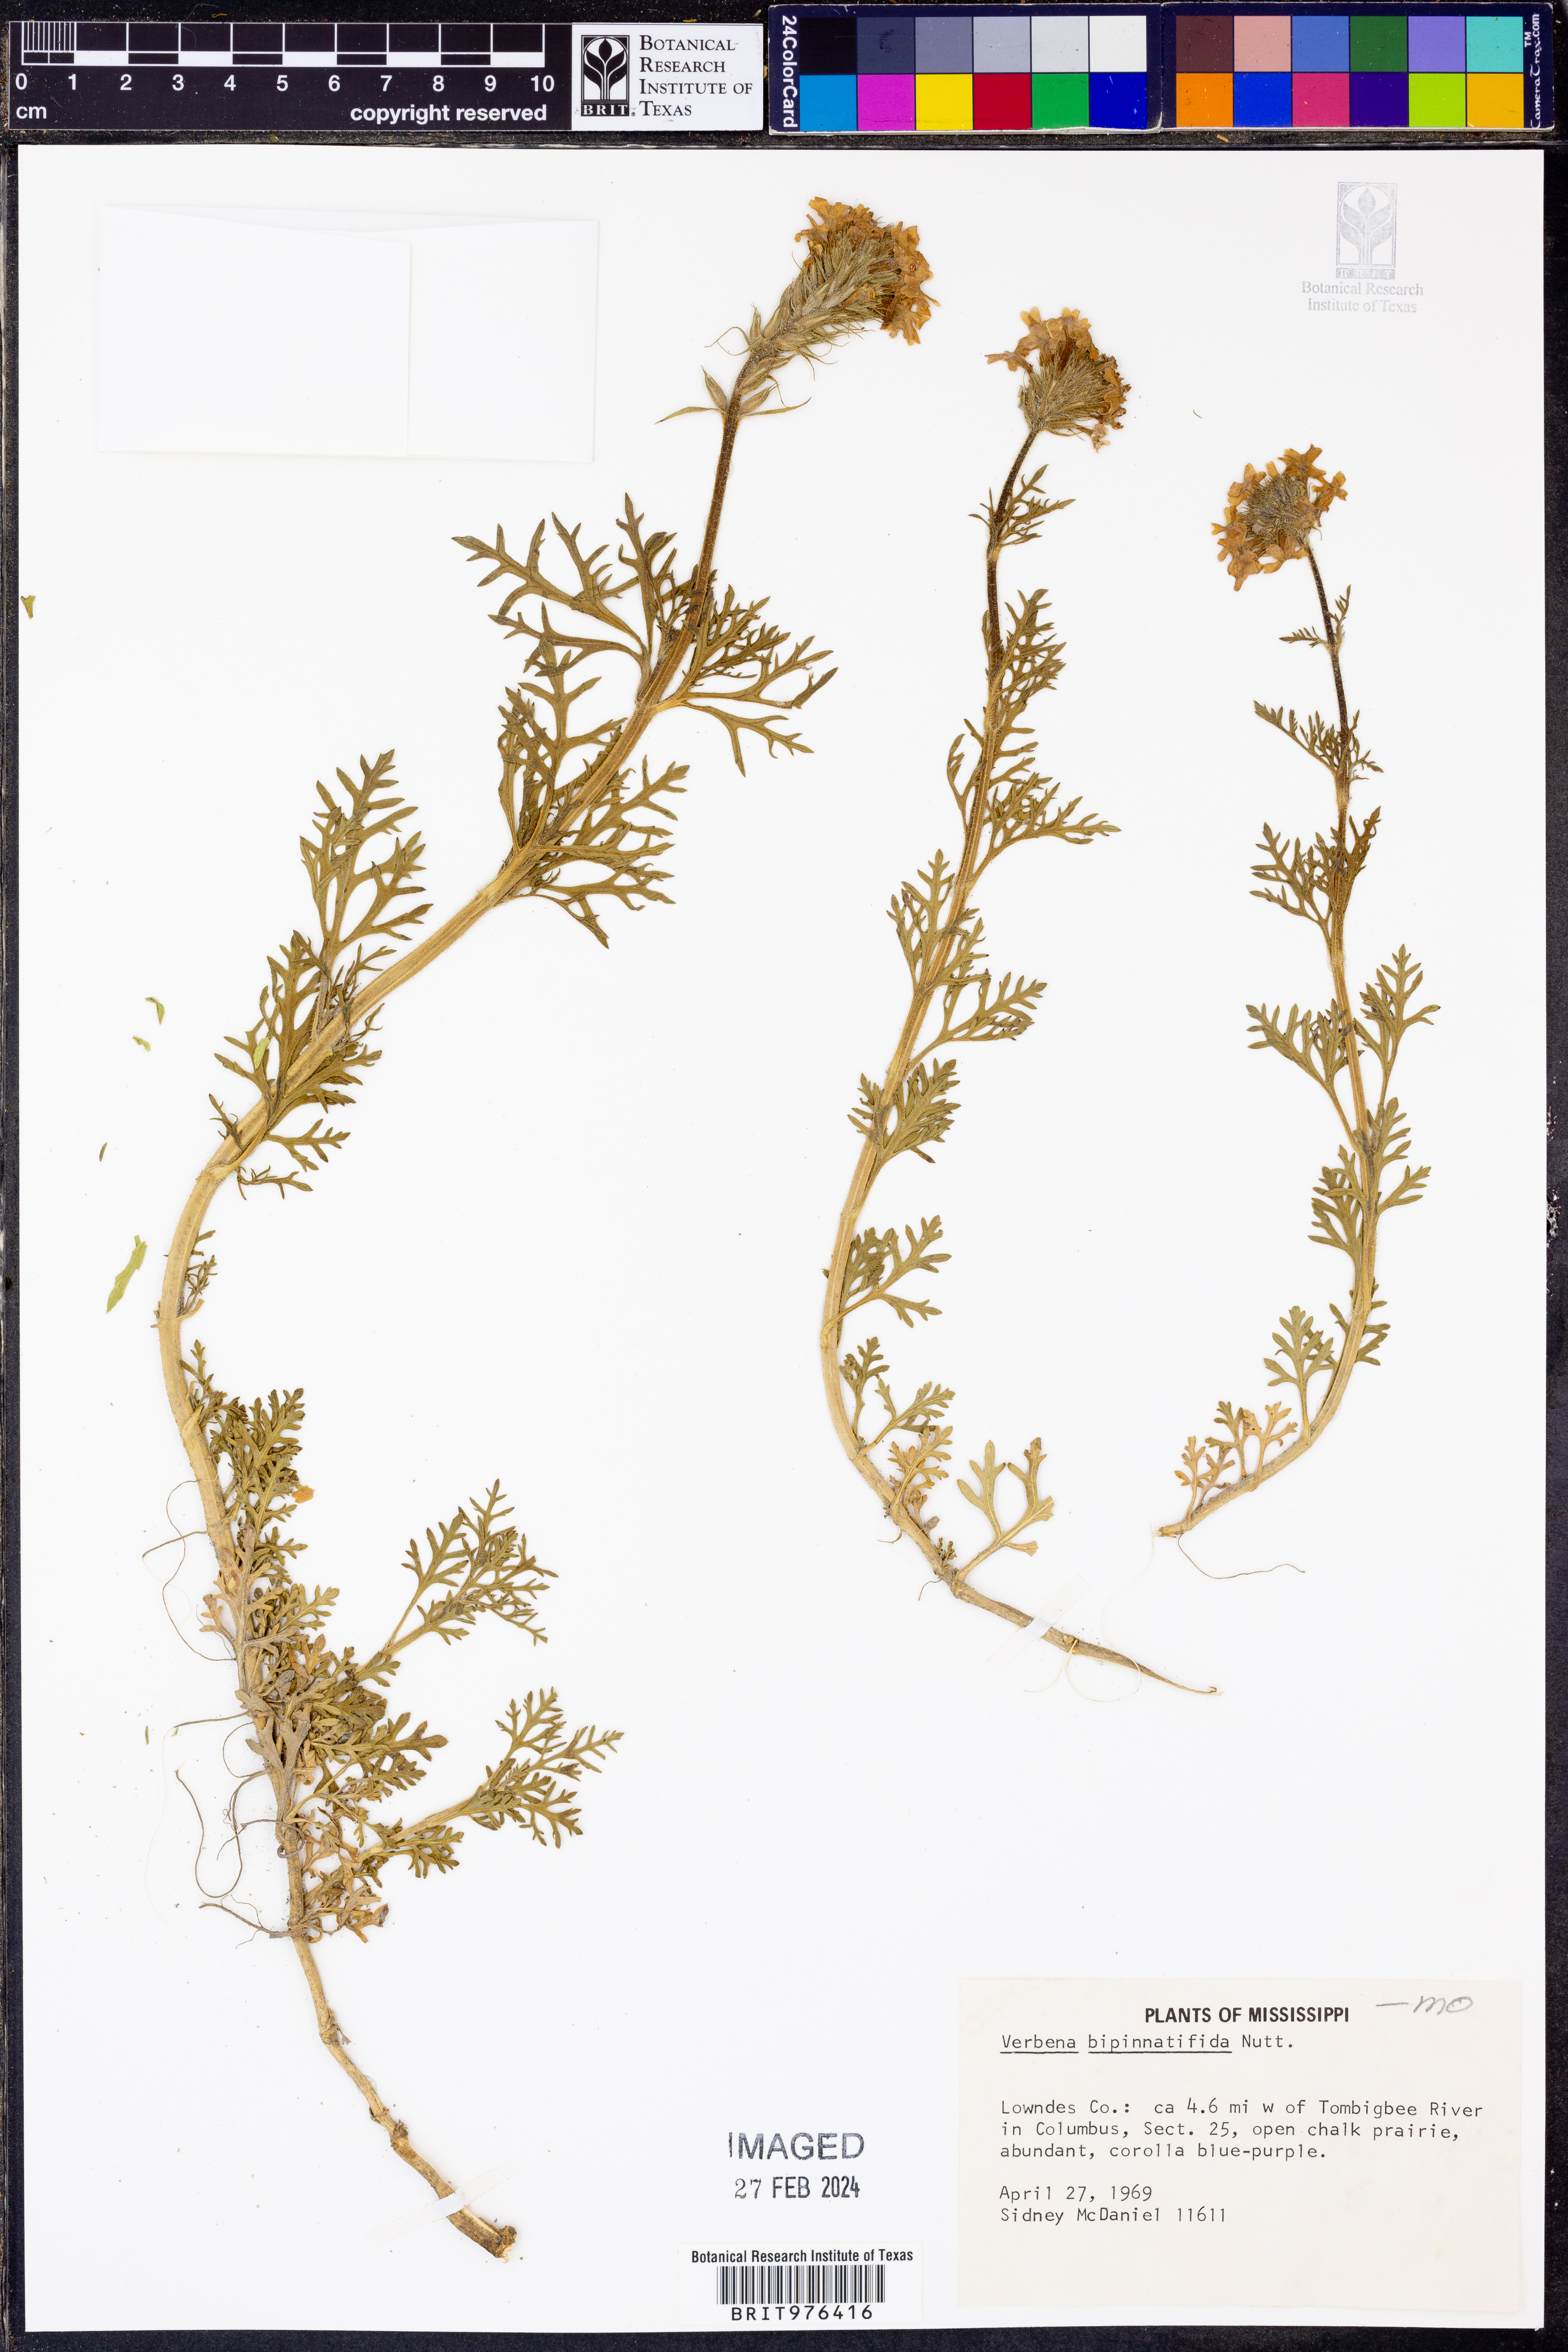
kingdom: Plantae
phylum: Tracheophyta
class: Magnoliopsida
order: Lamiales
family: Verbenaceae
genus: Verbena
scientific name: Verbena bipinnatifida
